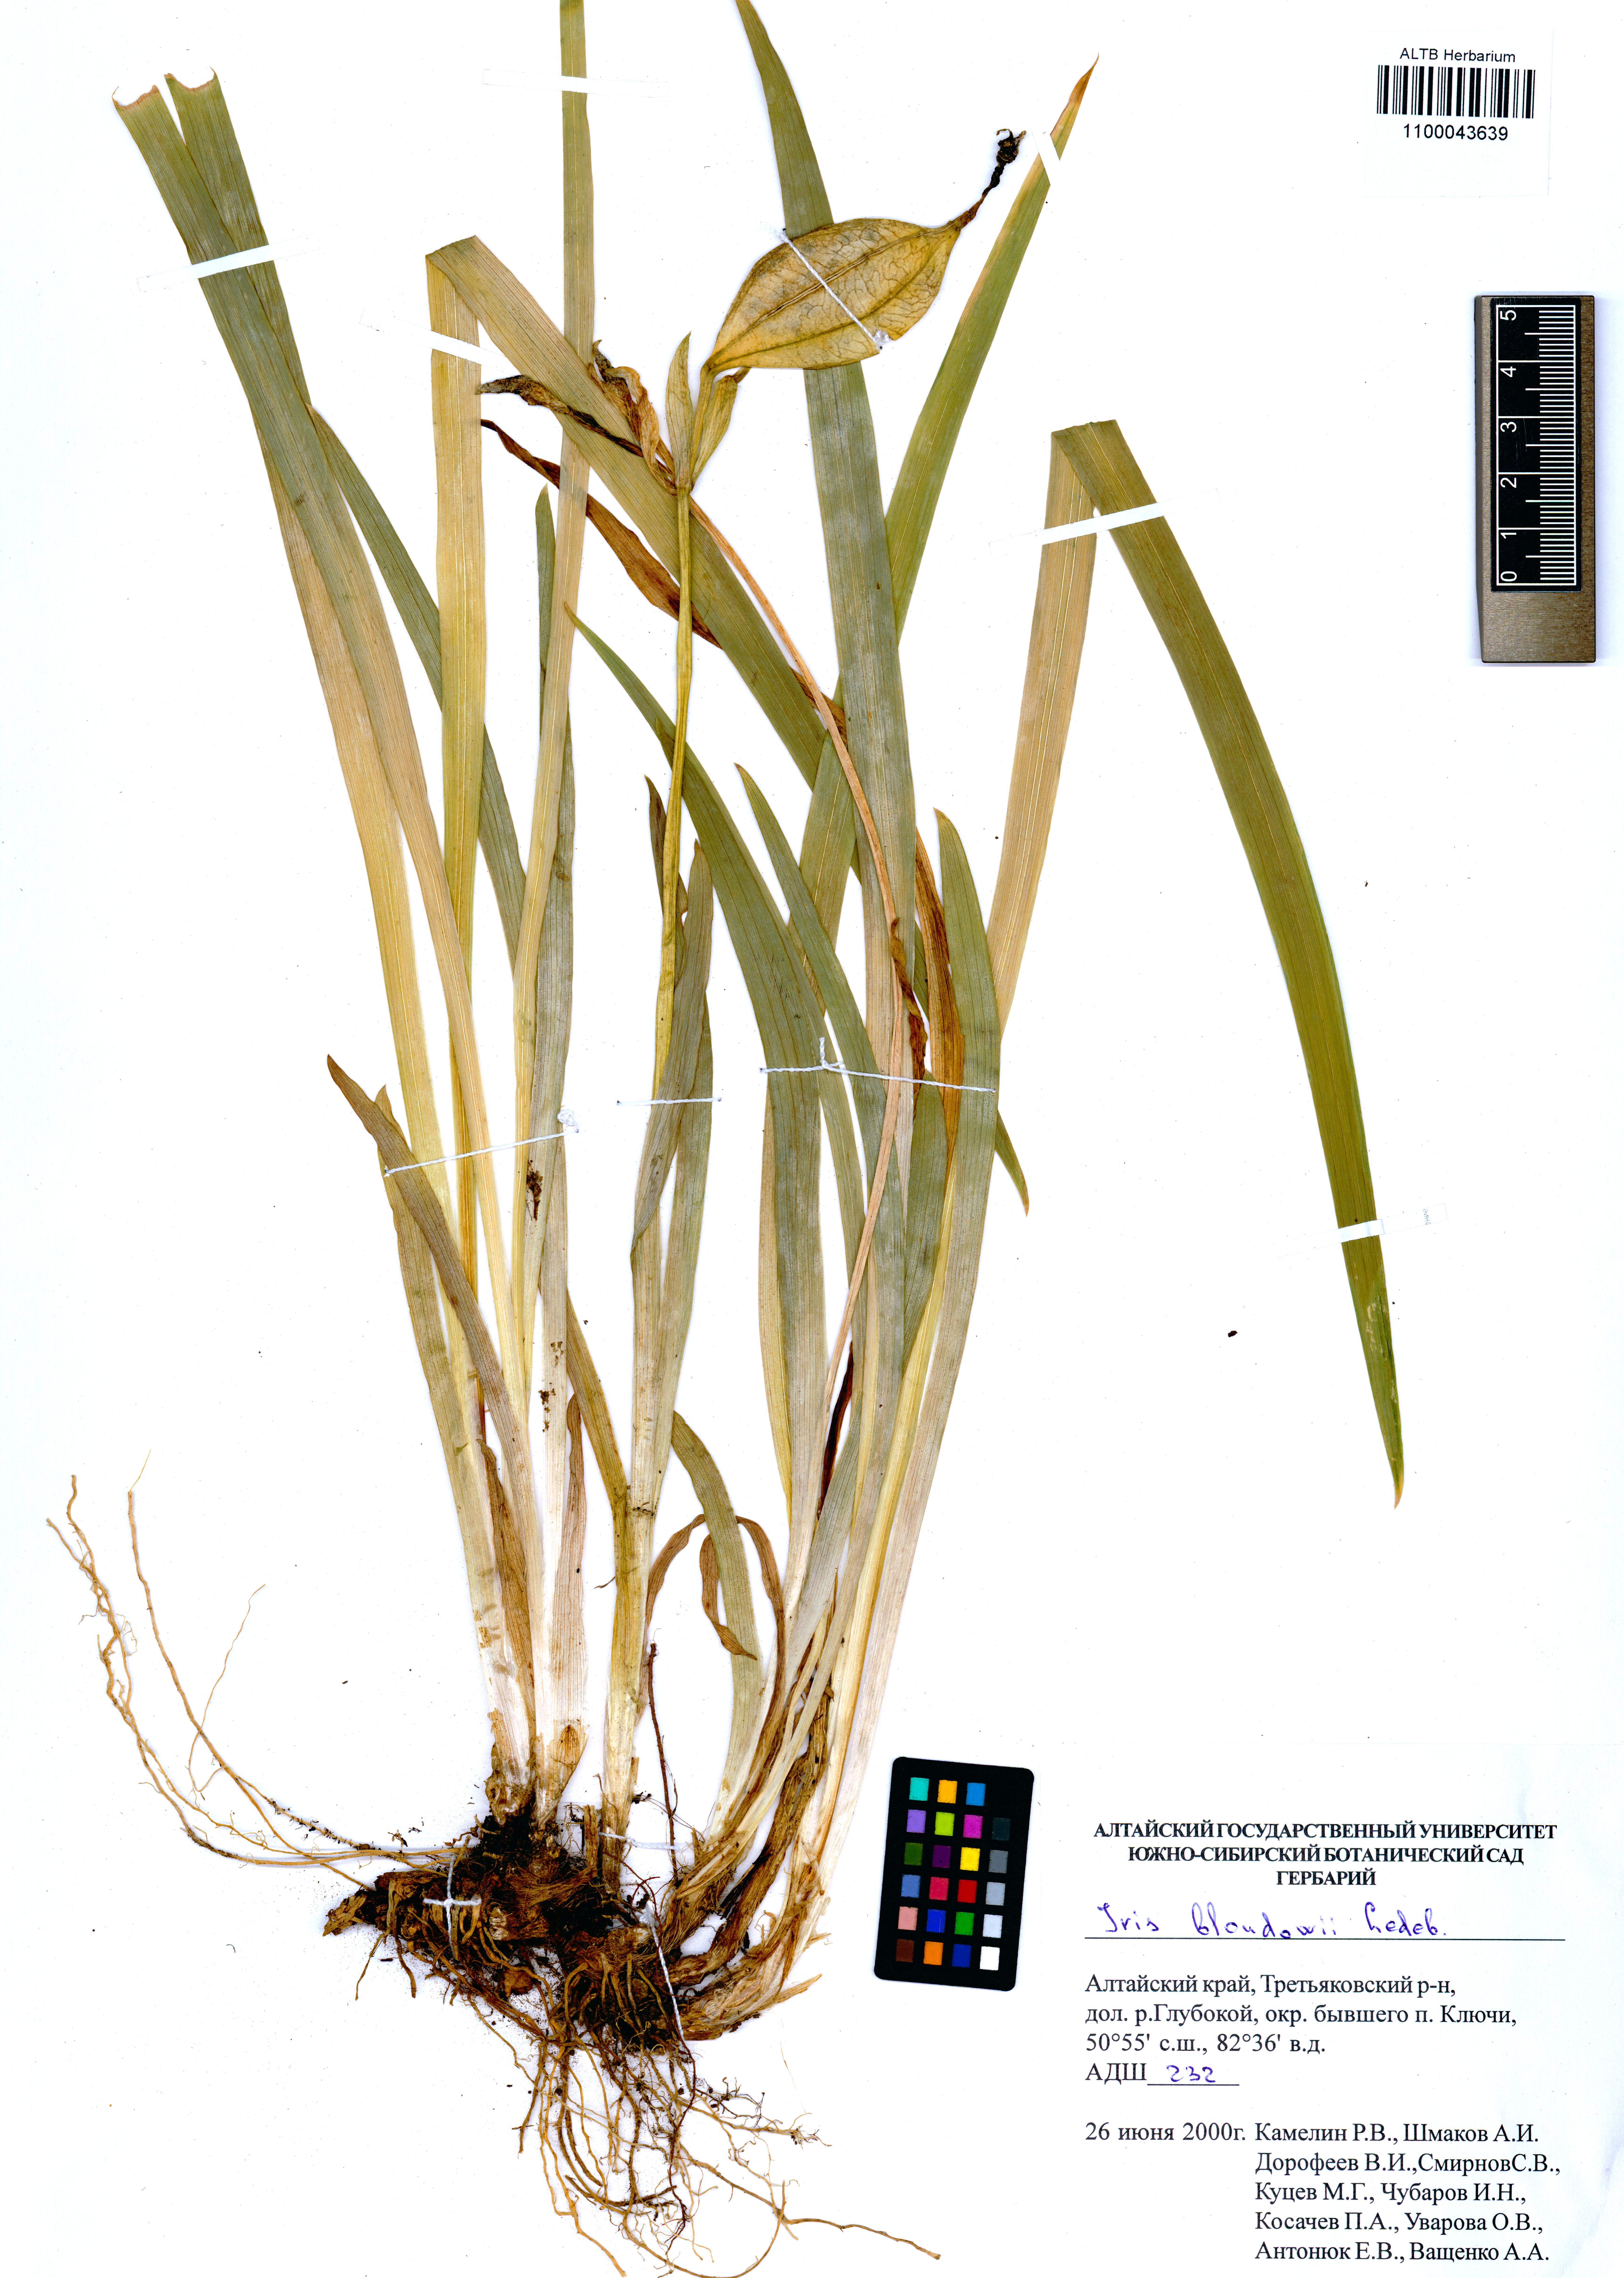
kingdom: Plantae
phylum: Tracheophyta
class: Liliopsida
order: Asparagales
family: Iridaceae
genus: Iris
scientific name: Iris bloudowii
